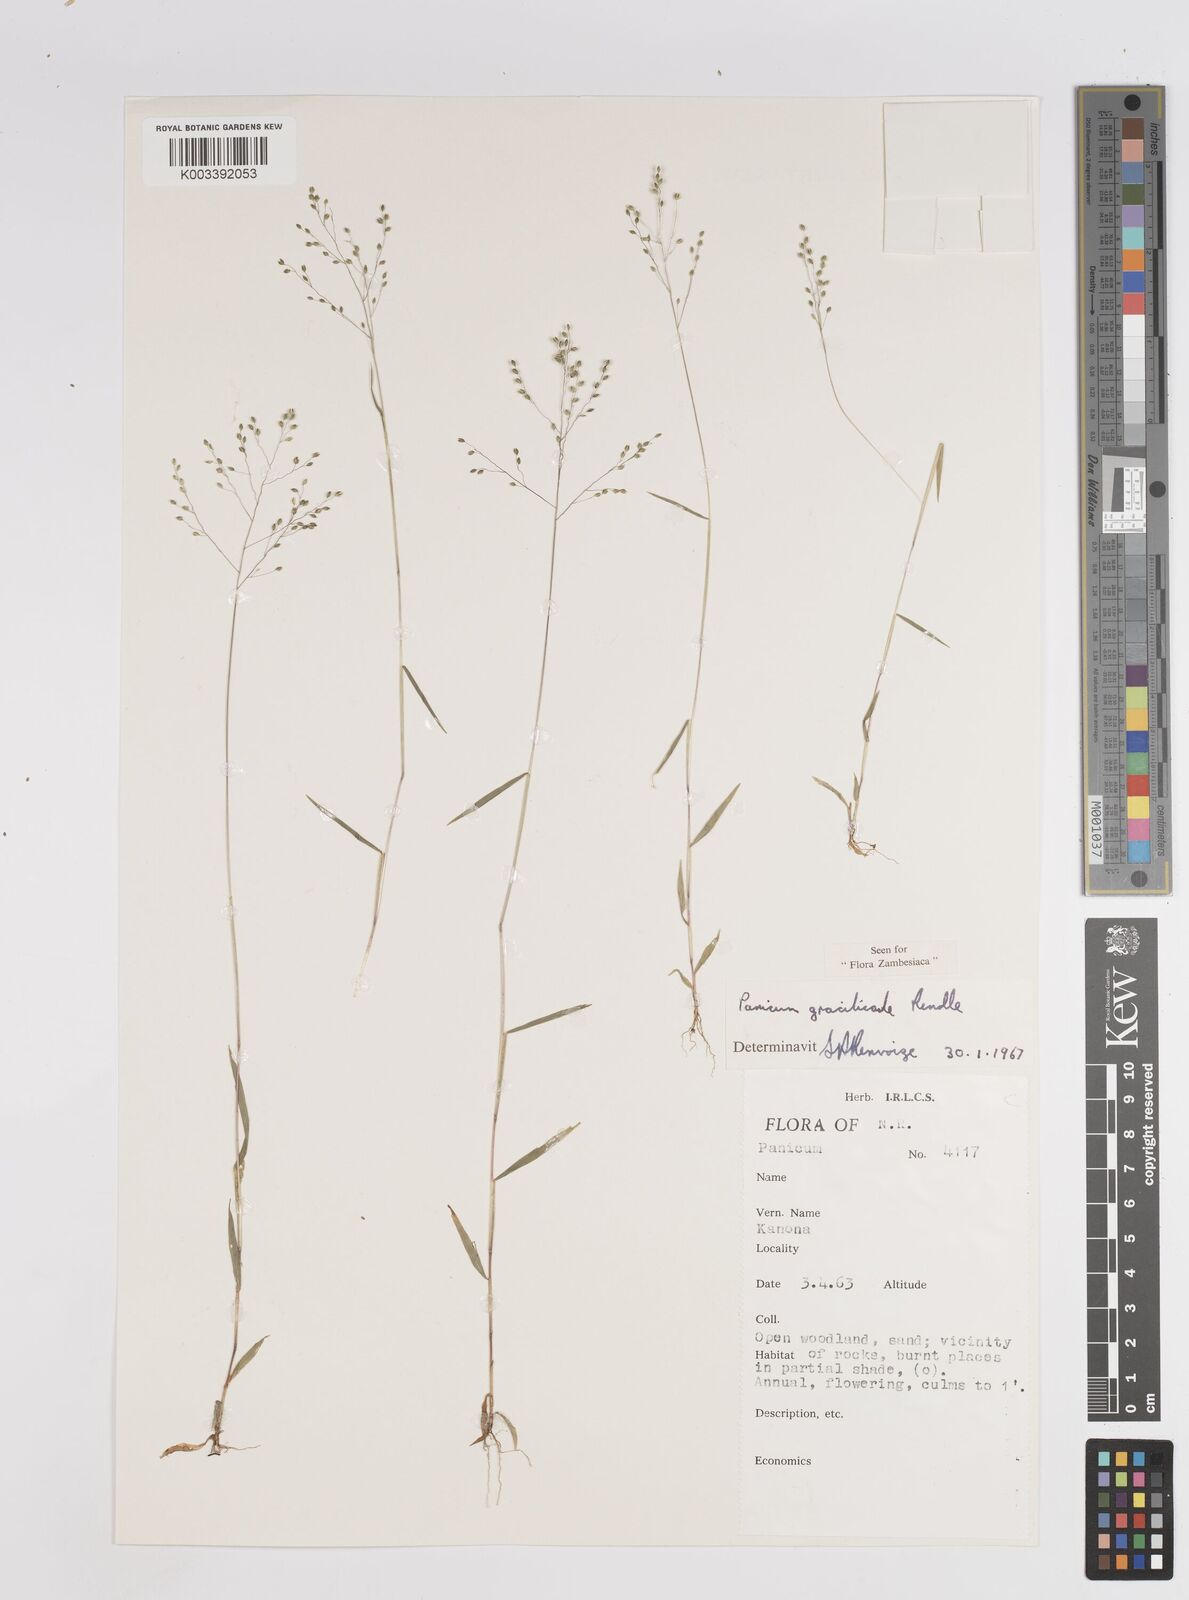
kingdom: Plantae
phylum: Tracheophyta
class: Liliopsida
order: Poales
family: Poaceae
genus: Trichanthecium
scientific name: Trichanthecium gracilicaule
